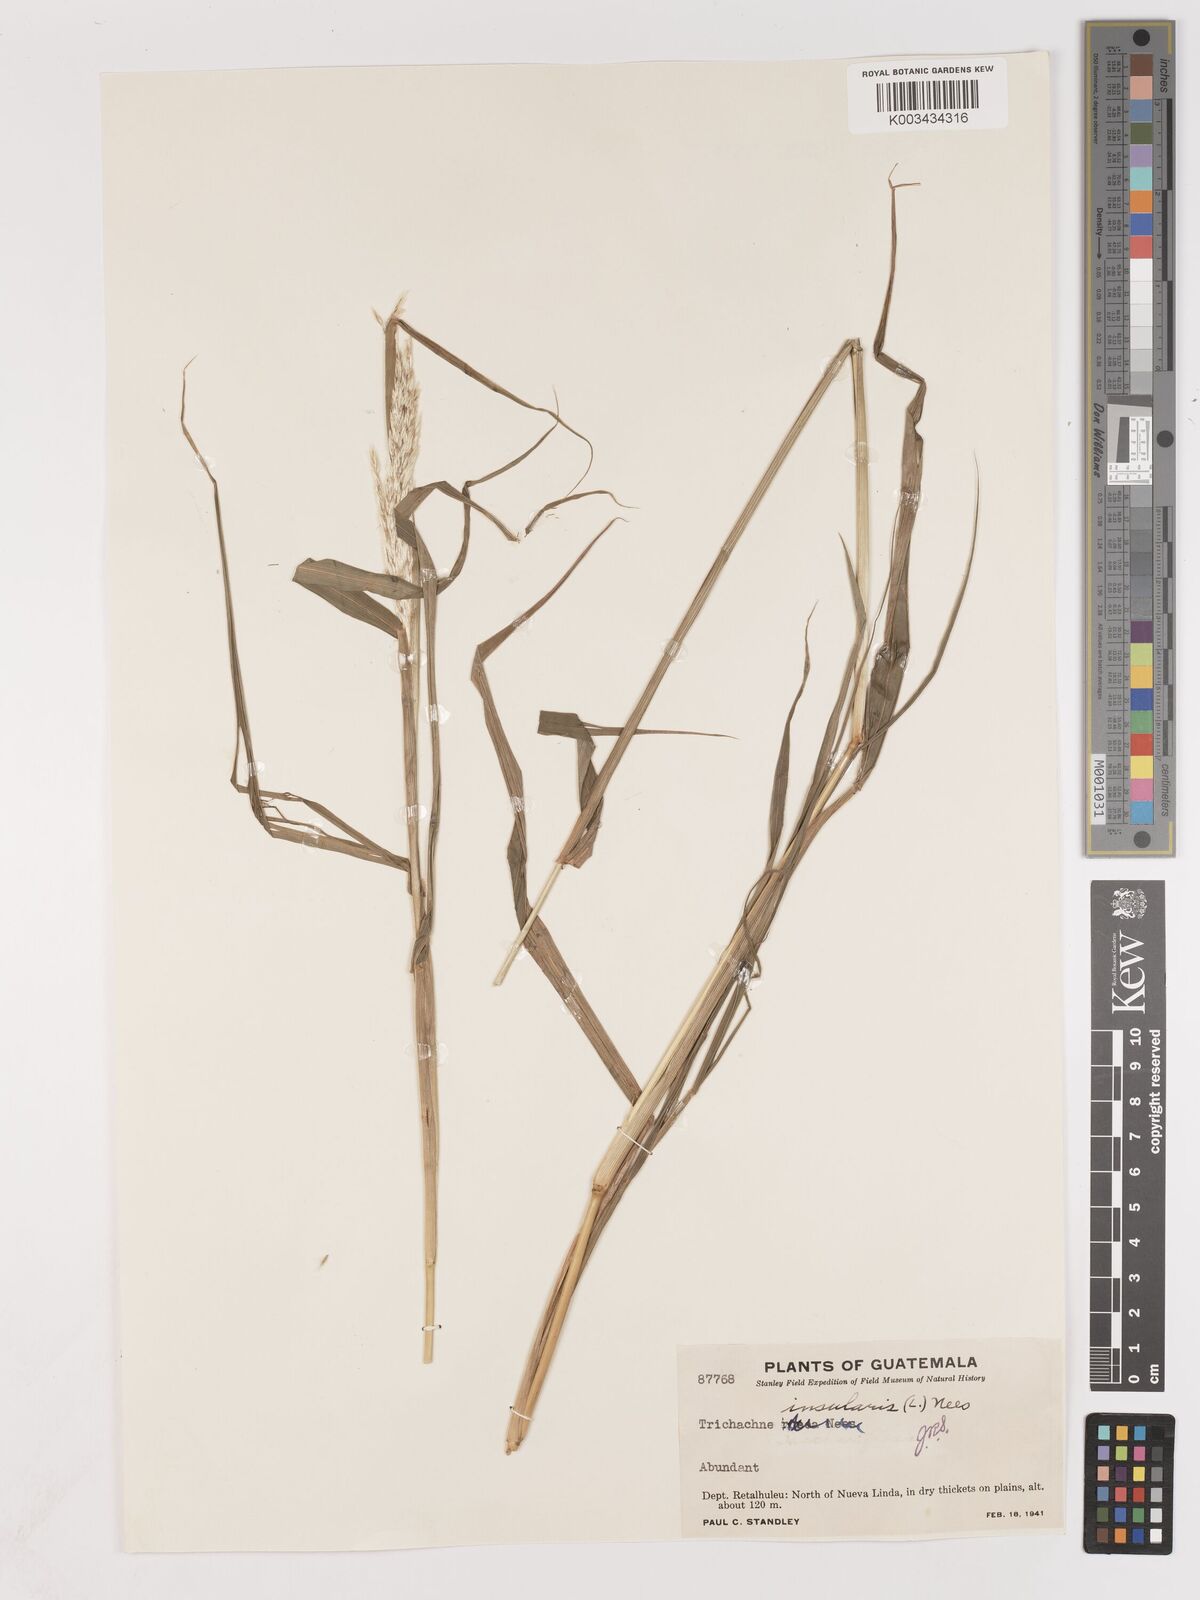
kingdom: Plantae
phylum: Tracheophyta
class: Liliopsida
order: Poales
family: Poaceae
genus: Digitaria
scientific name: Digitaria insularis
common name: Sourgrass
